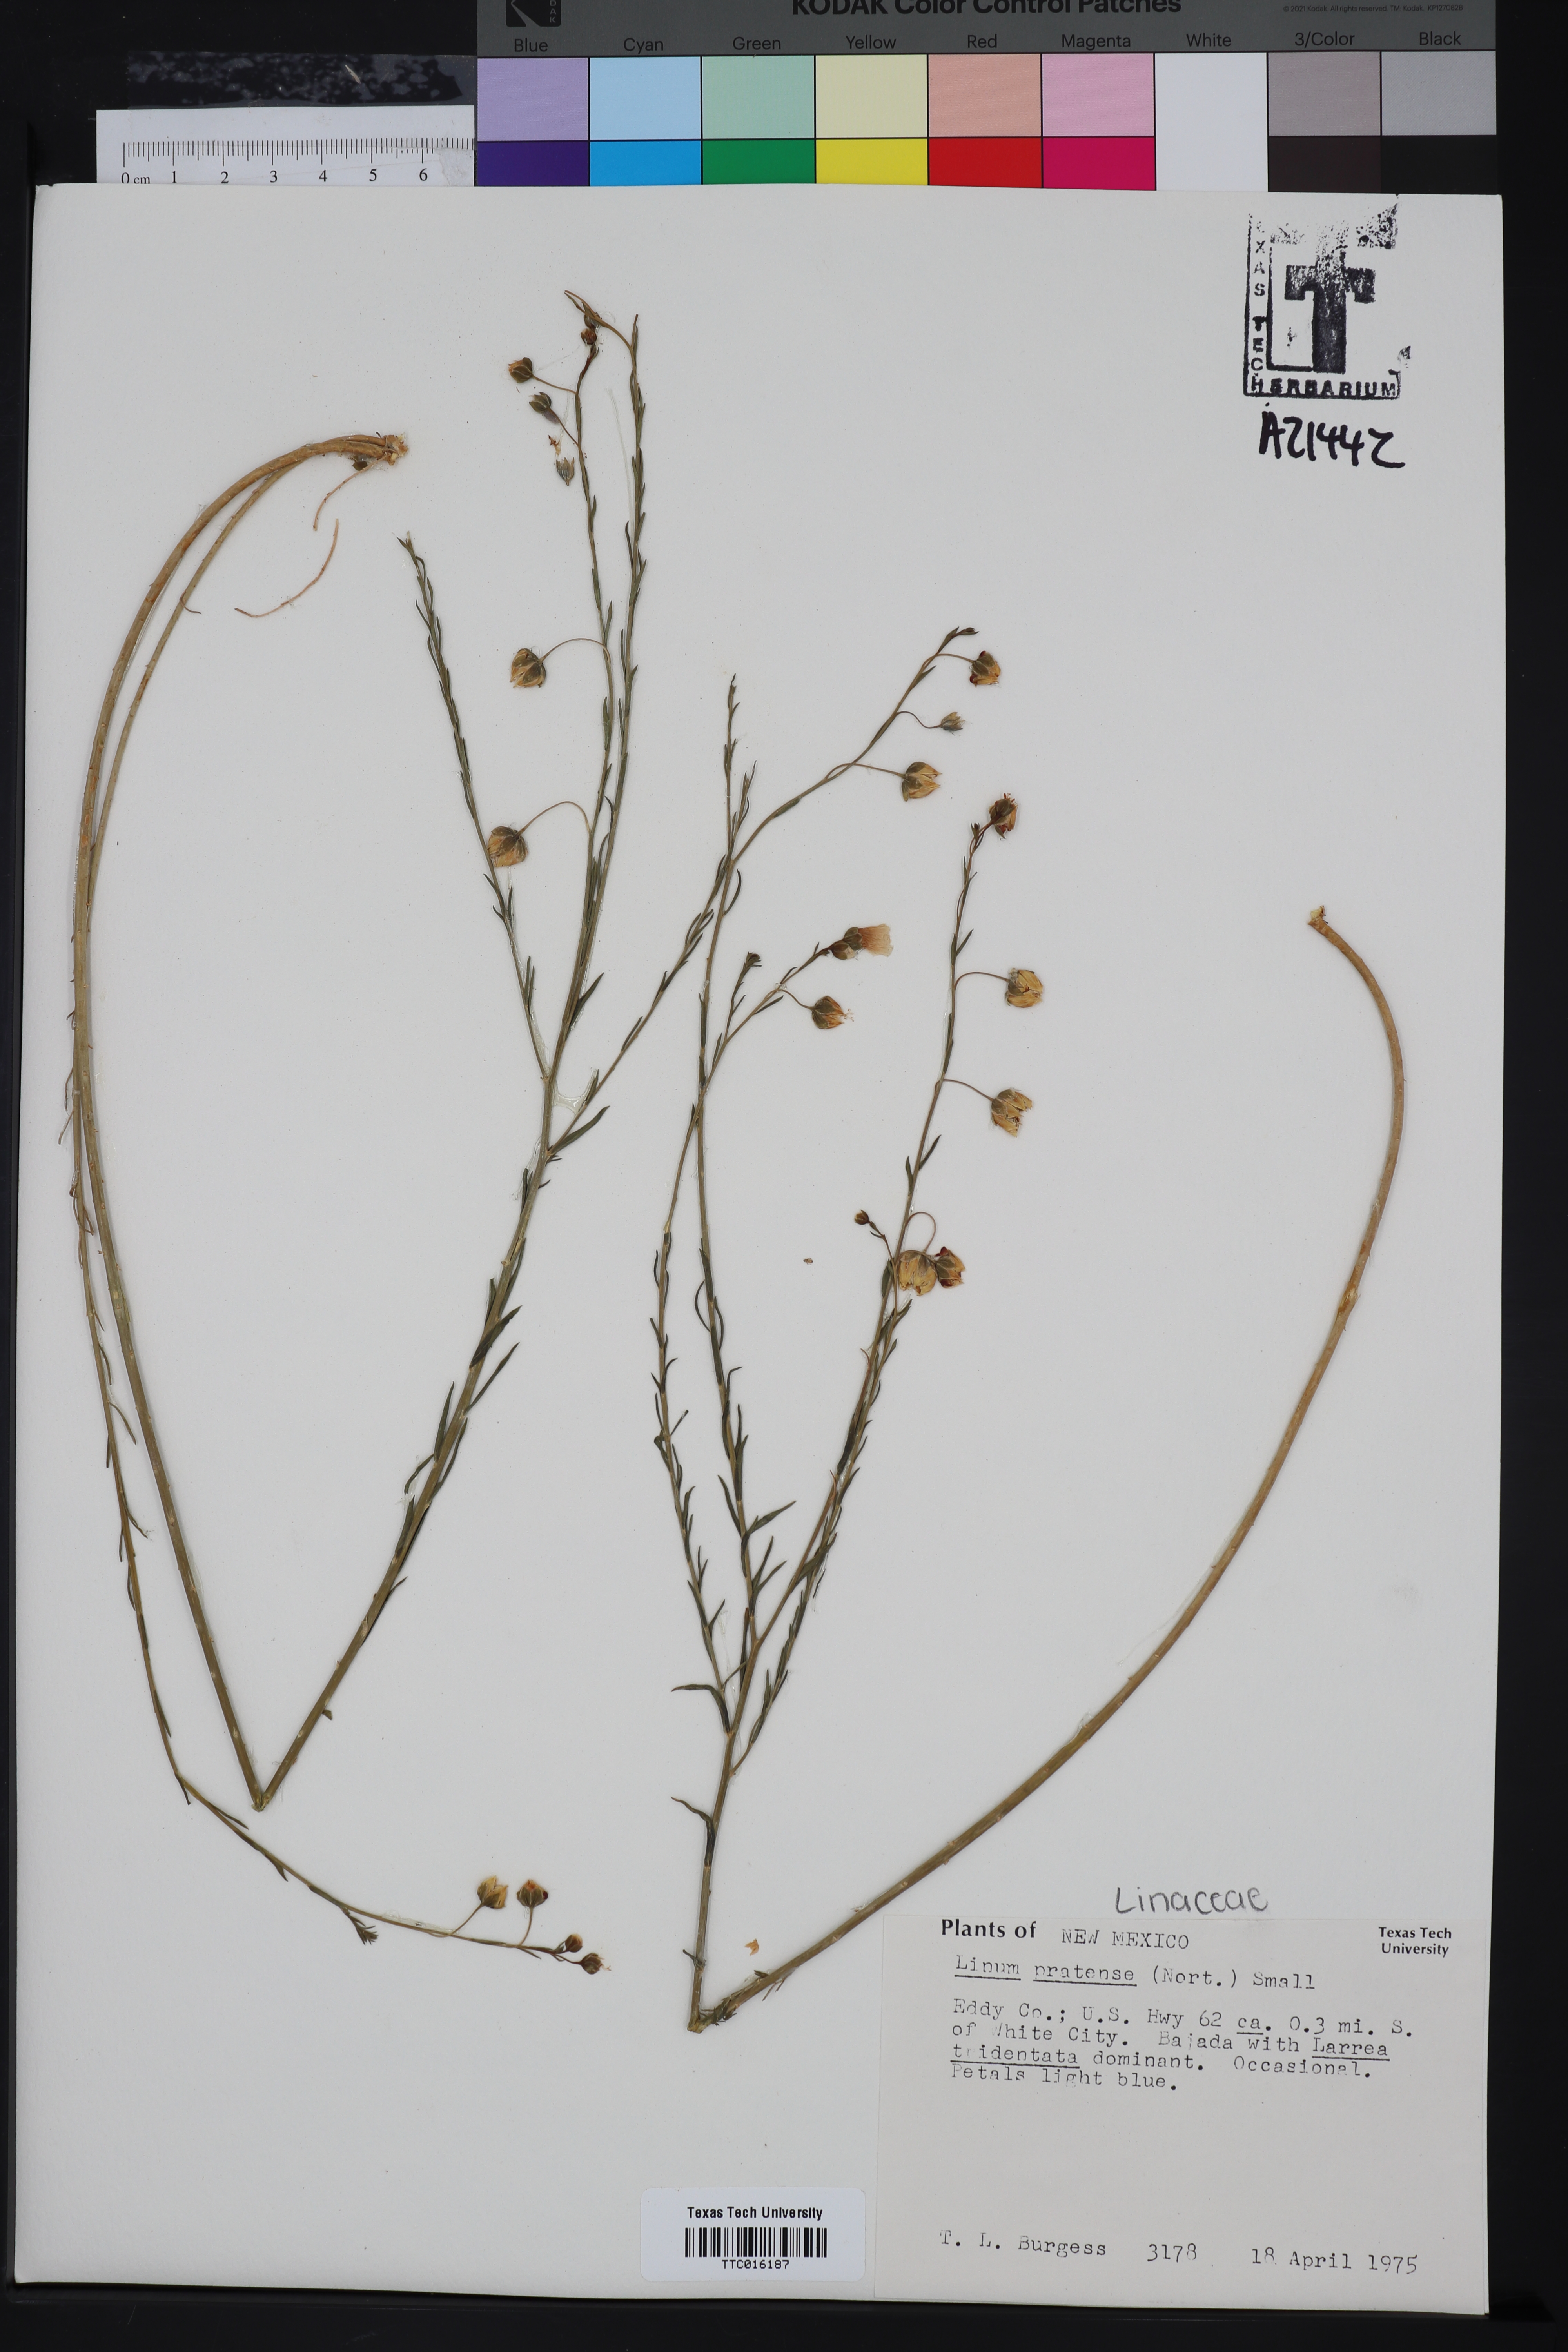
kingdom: Plantae
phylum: Tracheophyta
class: Magnoliopsida
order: Malpighiales
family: Linaceae
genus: Linum
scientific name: Linum pratense
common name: Norton's flax
